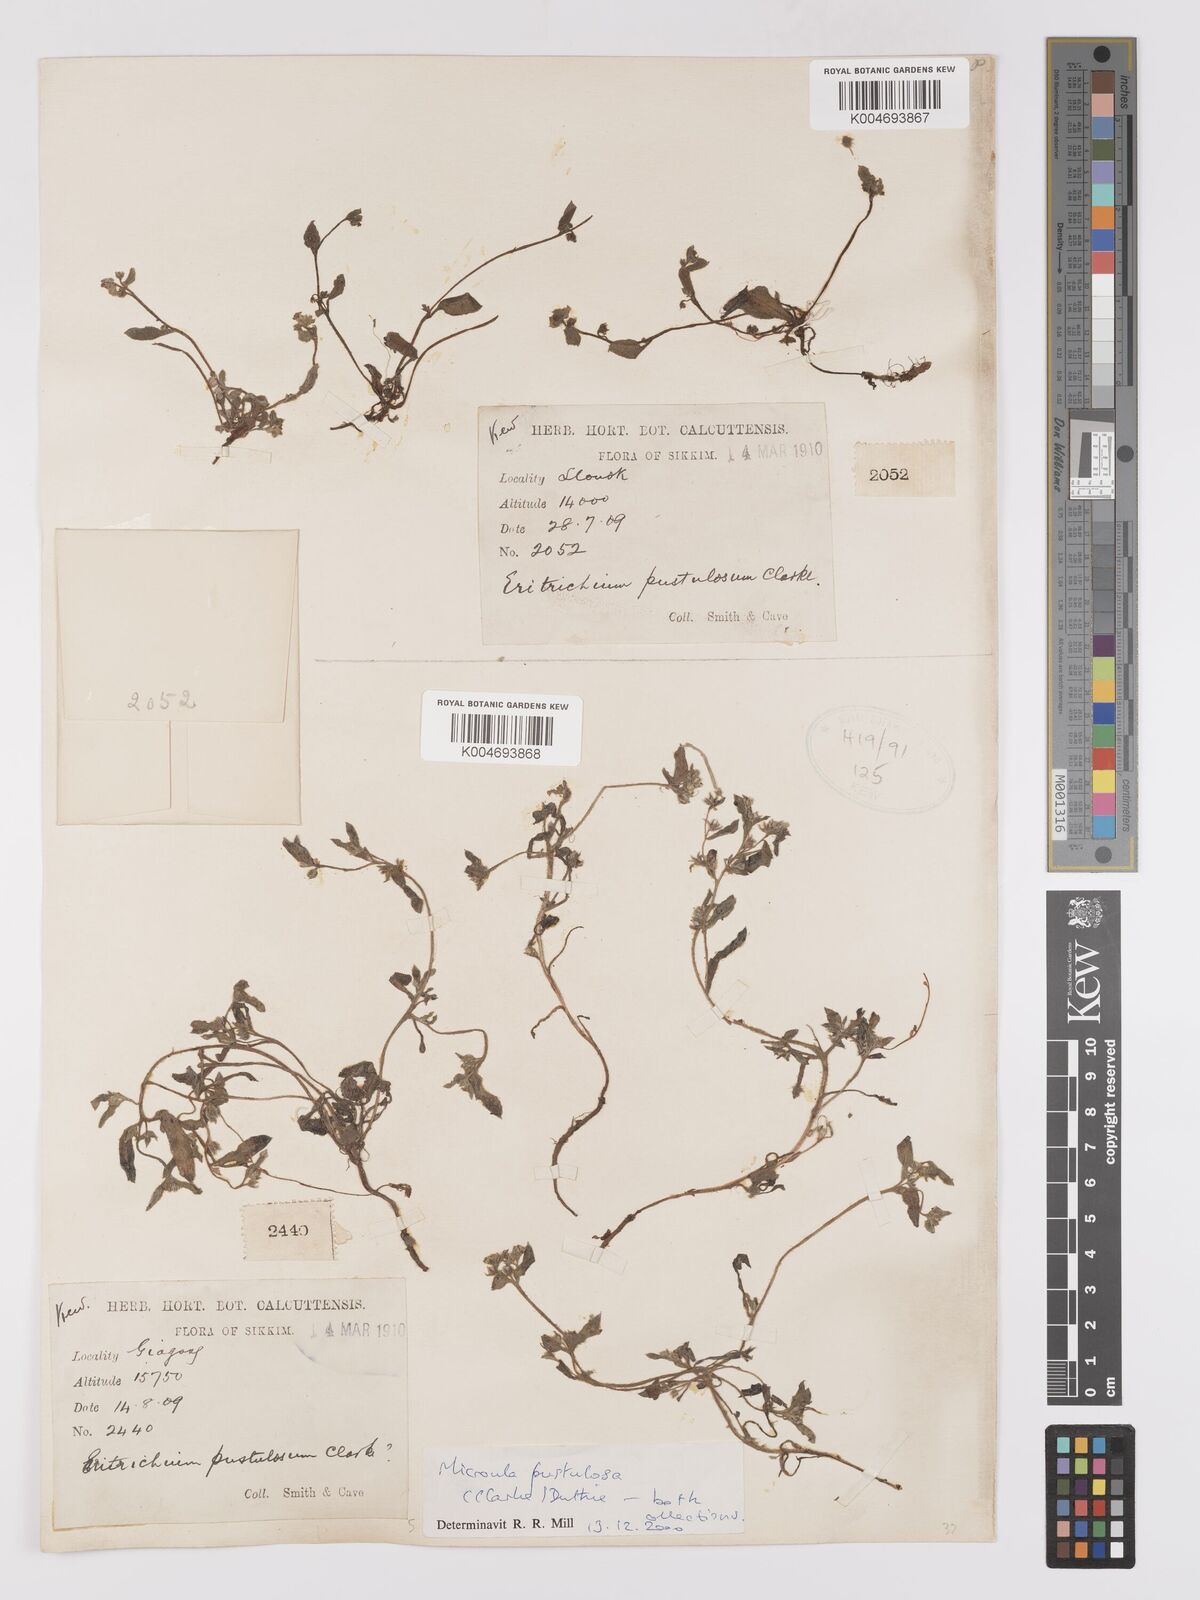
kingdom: Plantae
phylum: Tracheophyta
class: Magnoliopsida
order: Boraginales
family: Boraginaceae
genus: Microula
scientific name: Microula pustulosa
